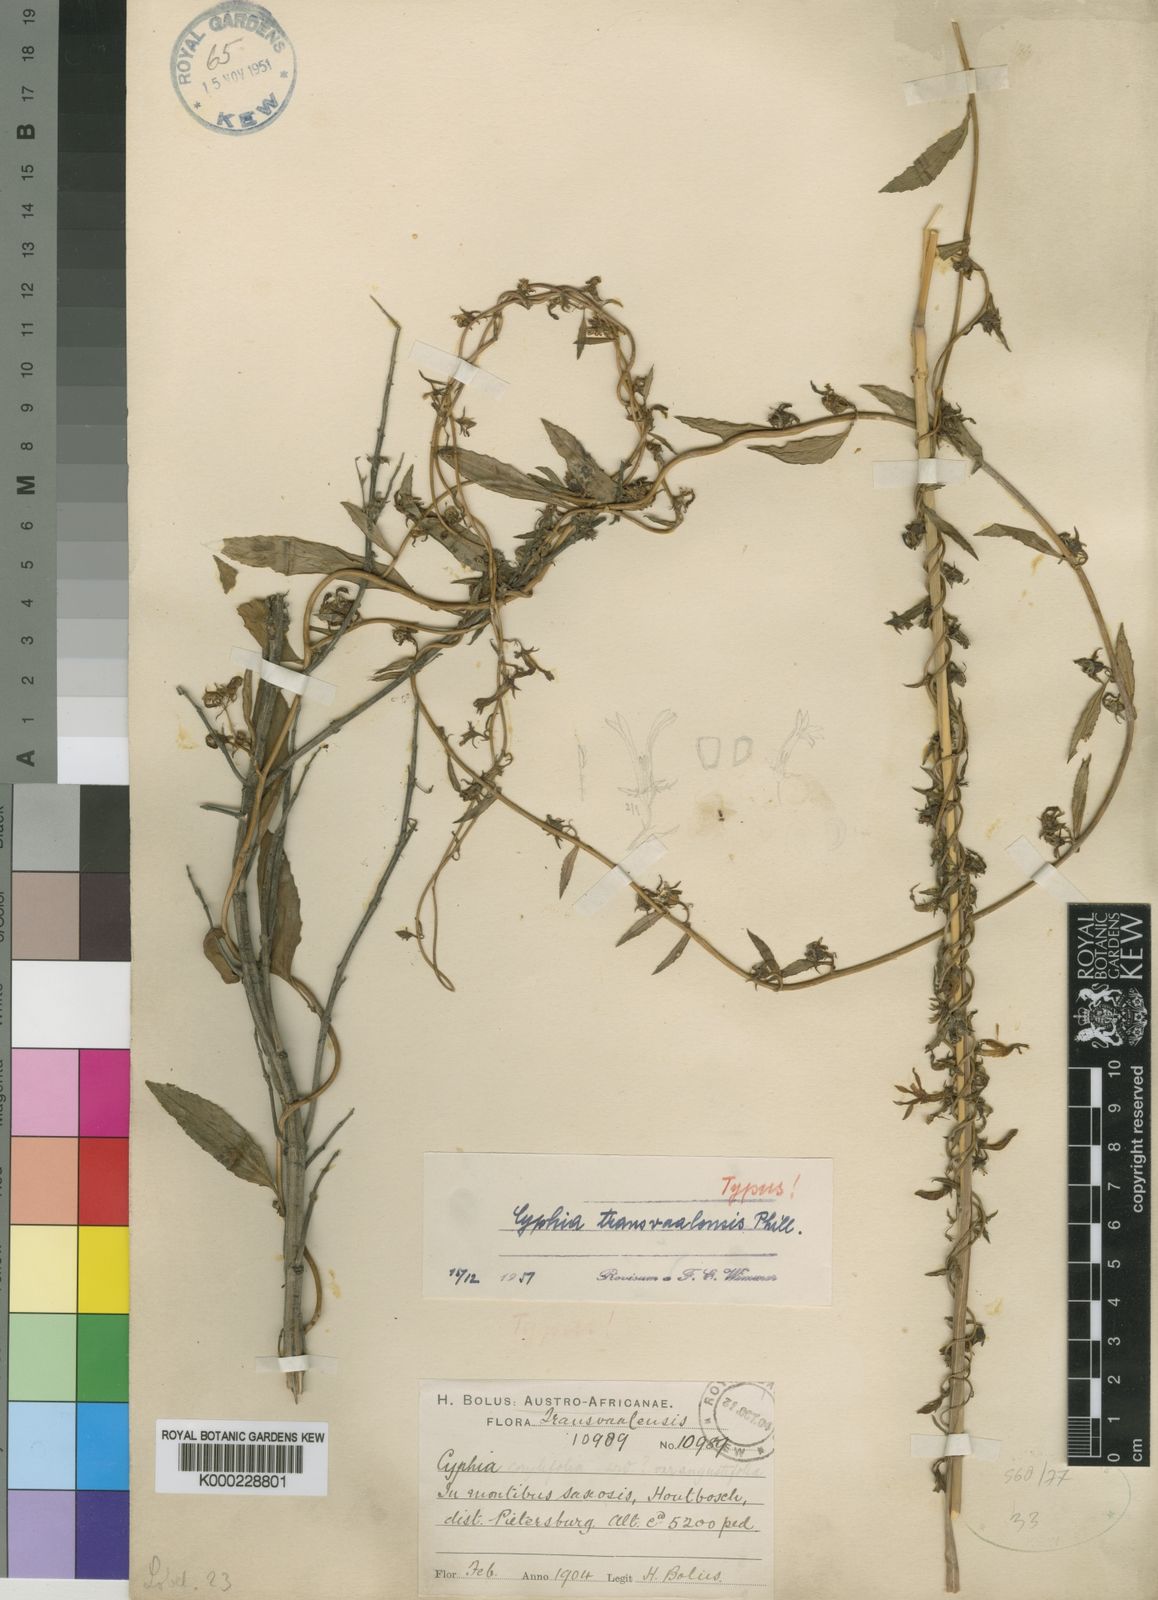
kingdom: Plantae
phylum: Tracheophyta
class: Magnoliopsida
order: Asterales
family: Campanulaceae
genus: Cyphia
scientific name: Cyphia transvaalensis
